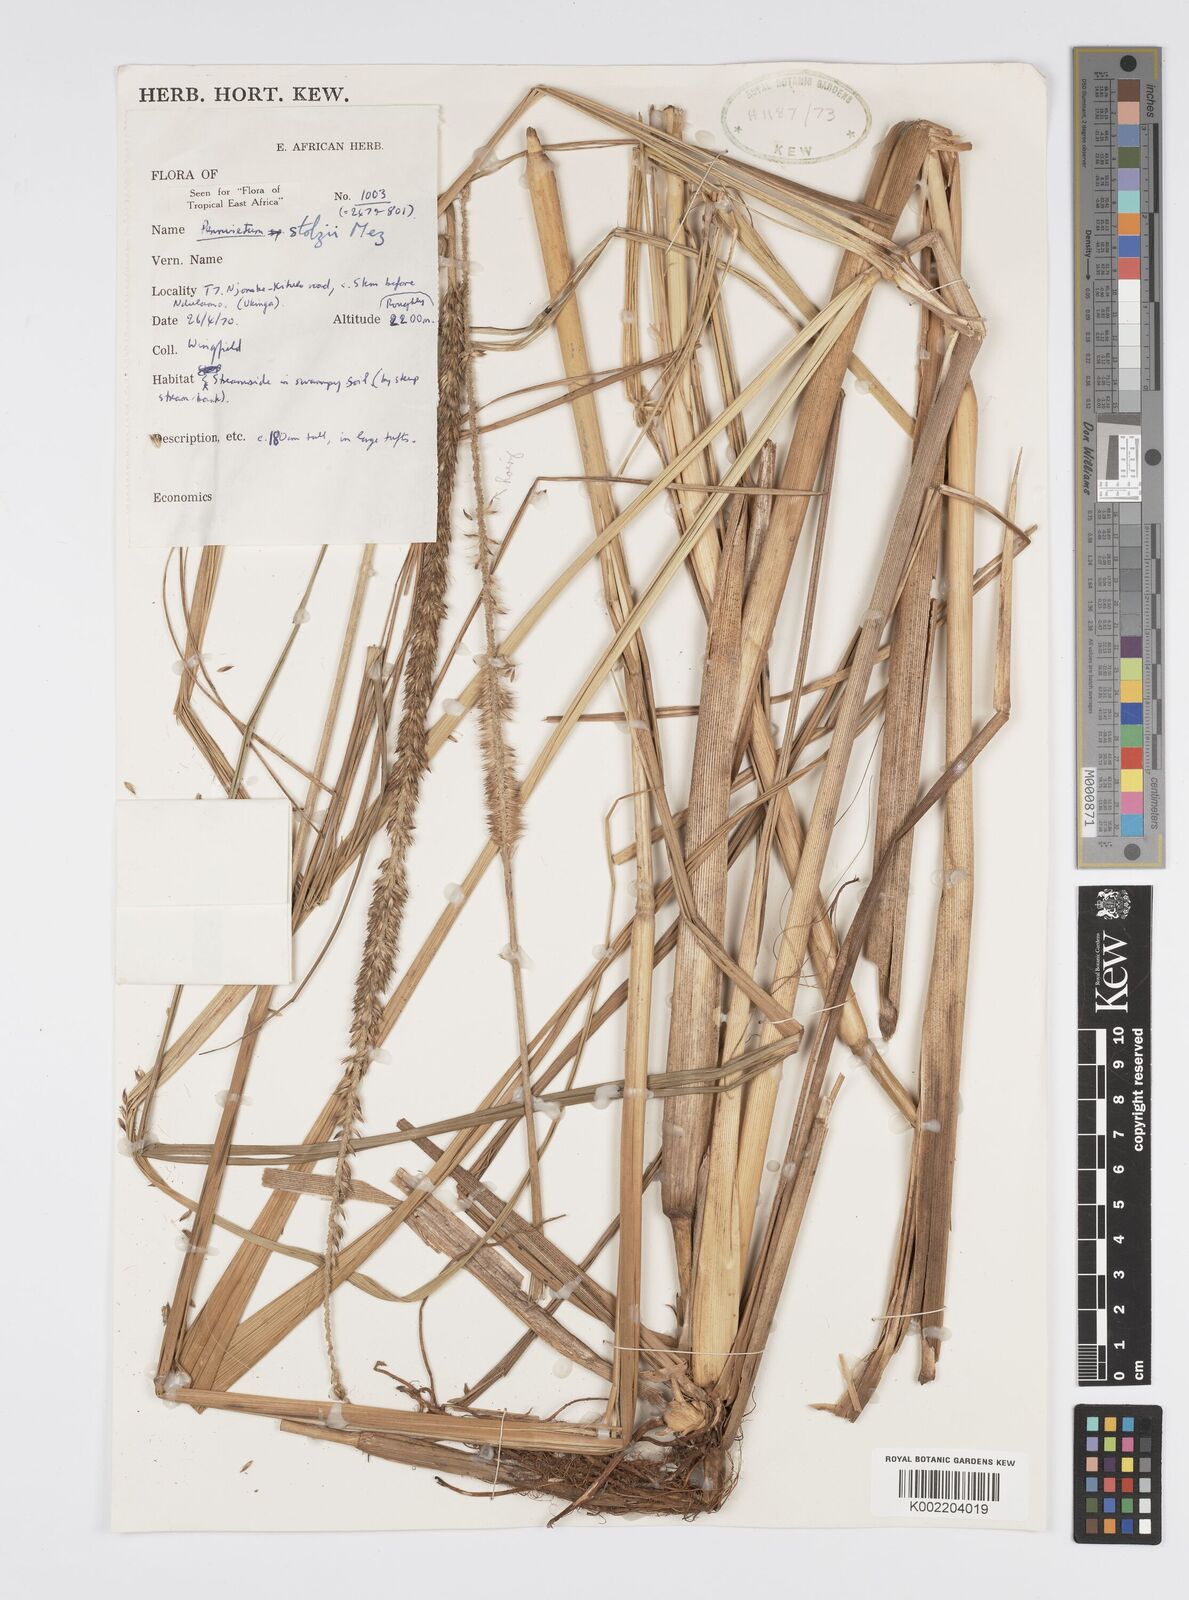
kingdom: Plantae
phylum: Tracheophyta
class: Liliopsida
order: Poales
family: Poaceae
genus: Cenchrus
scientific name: Cenchrus caudatus
